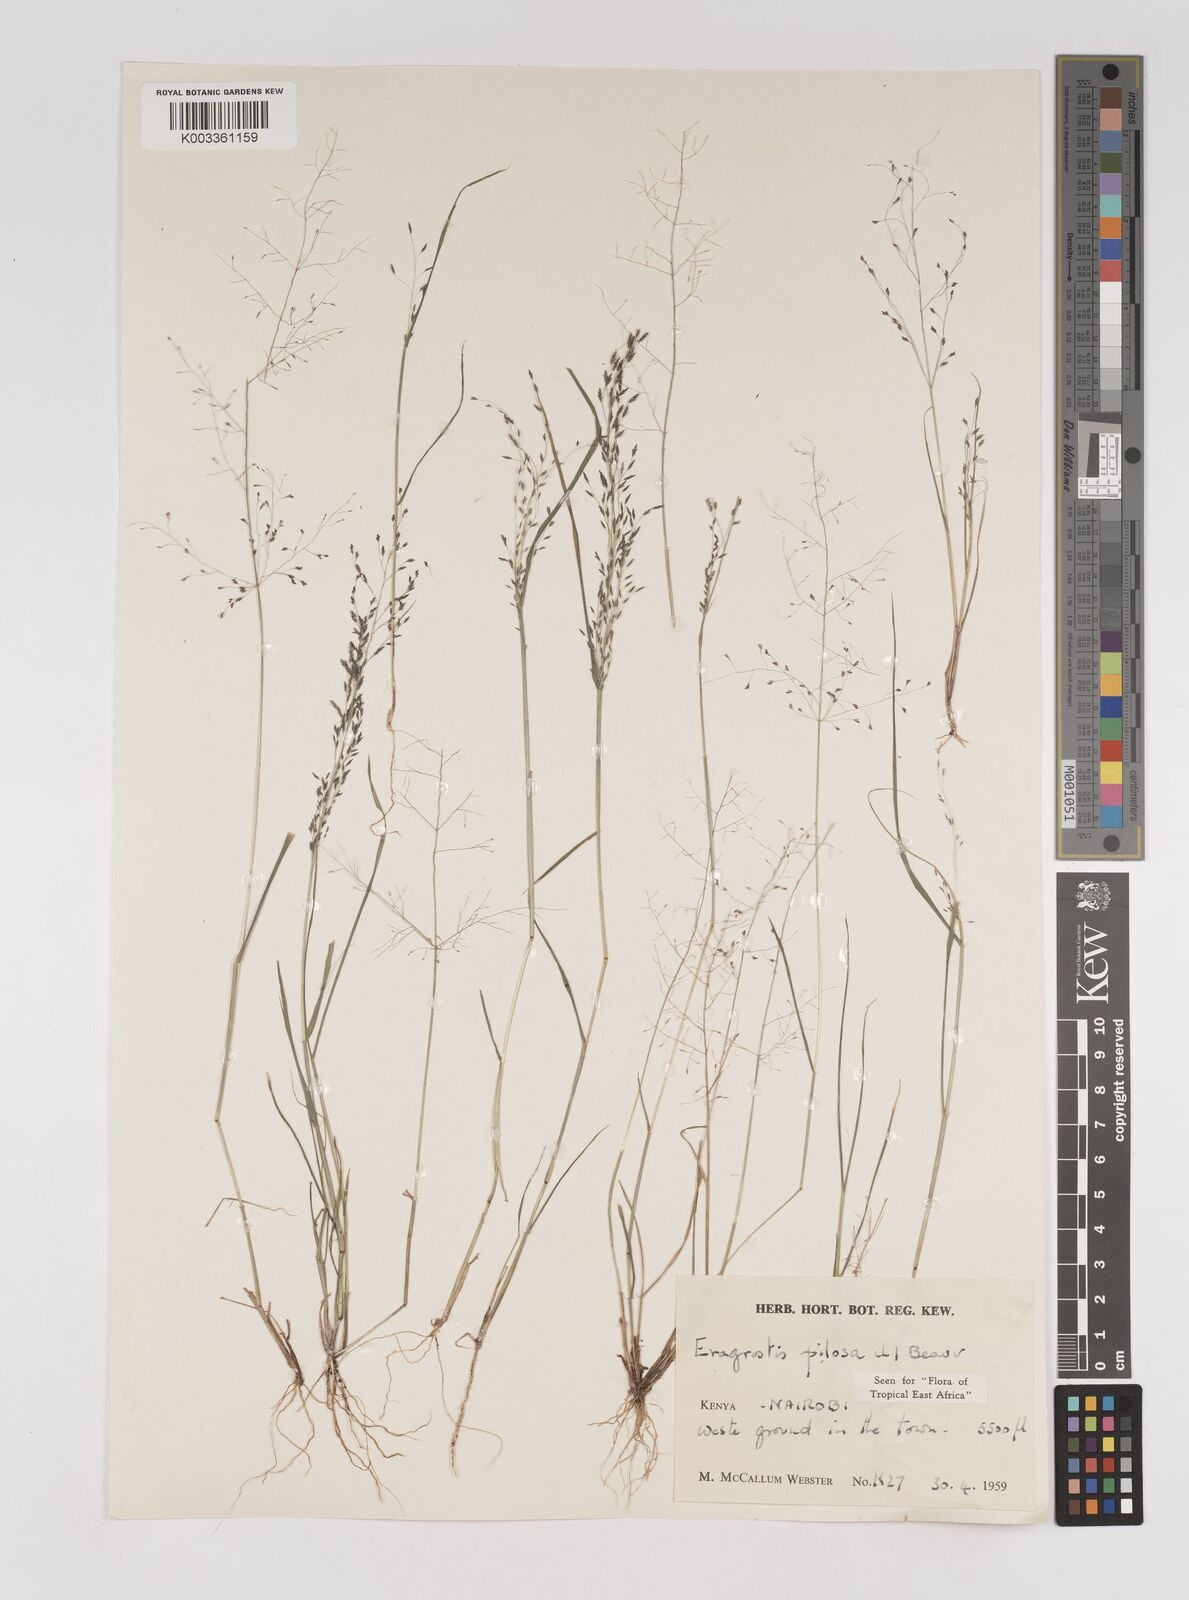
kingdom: Plantae
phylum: Tracheophyta
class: Liliopsida
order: Poales
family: Poaceae
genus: Eragrostis
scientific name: Eragrostis pilosa
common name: Indian lovegrass
